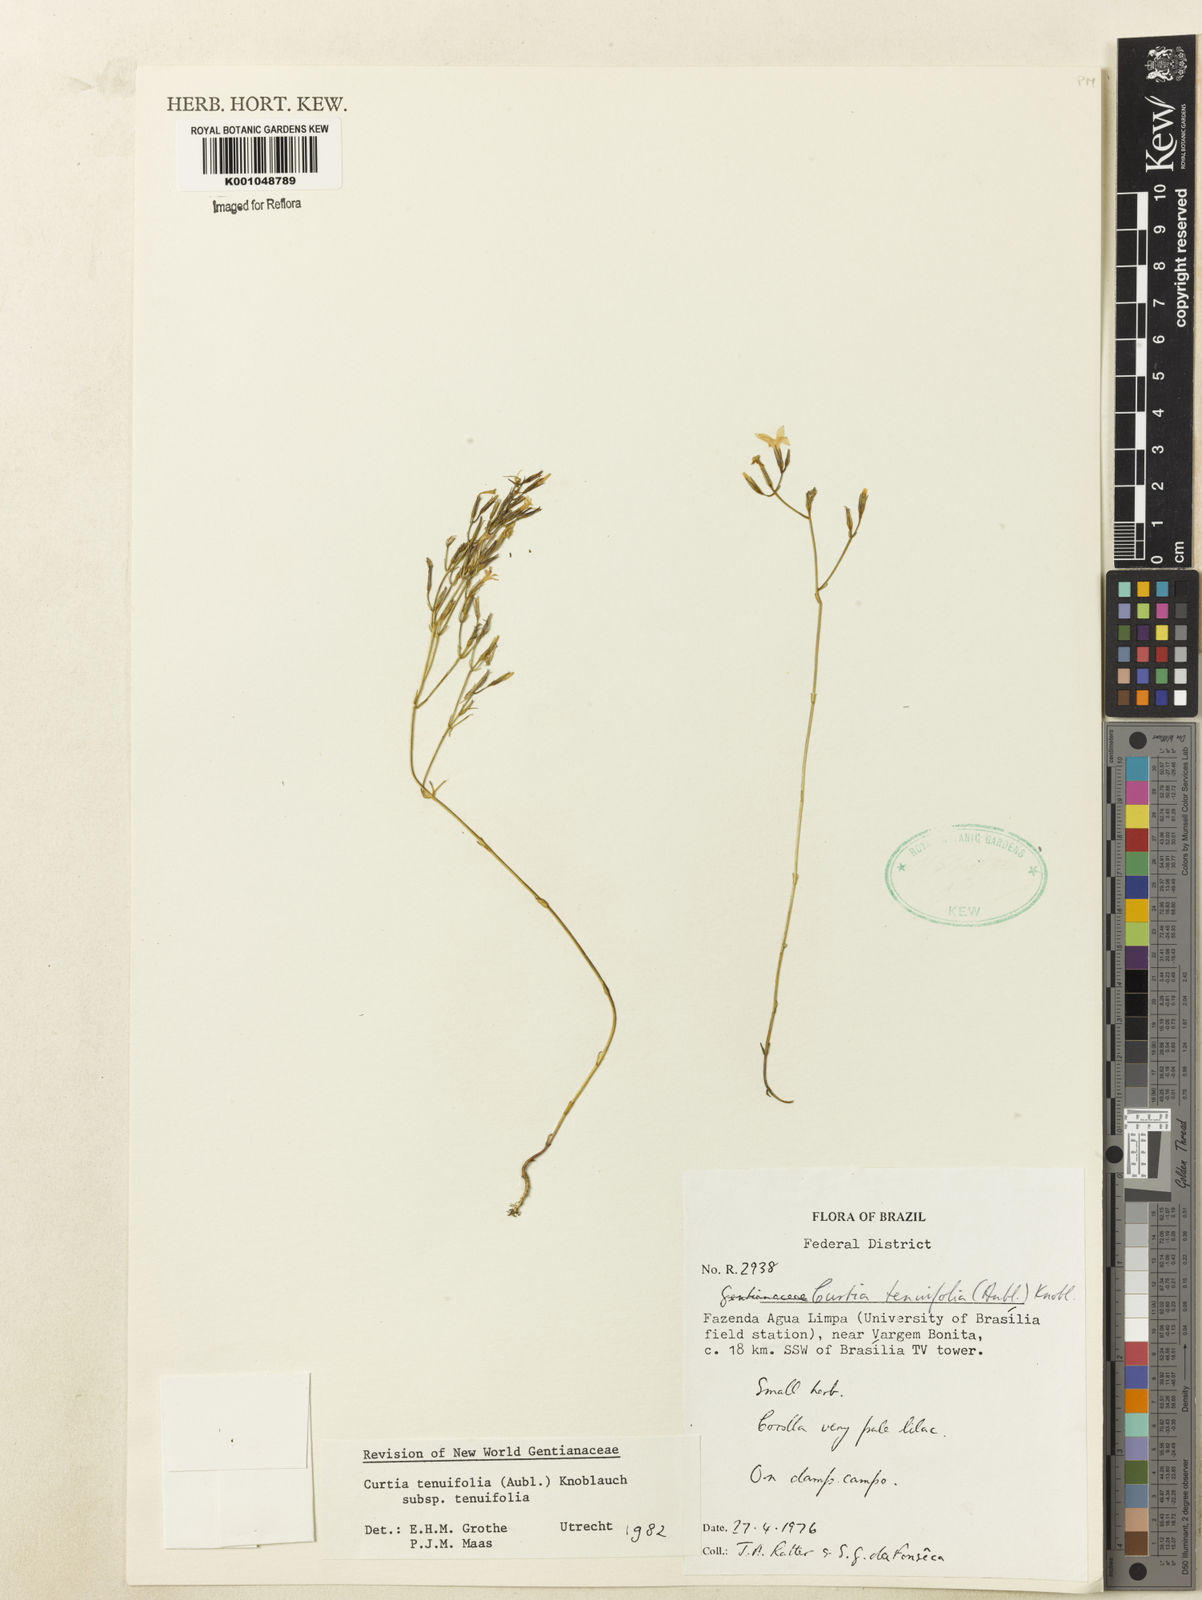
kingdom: Plantae
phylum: Tracheophyta
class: Magnoliopsida
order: Gentianales
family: Gentianaceae
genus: Curtia
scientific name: Curtia tenuifolia
